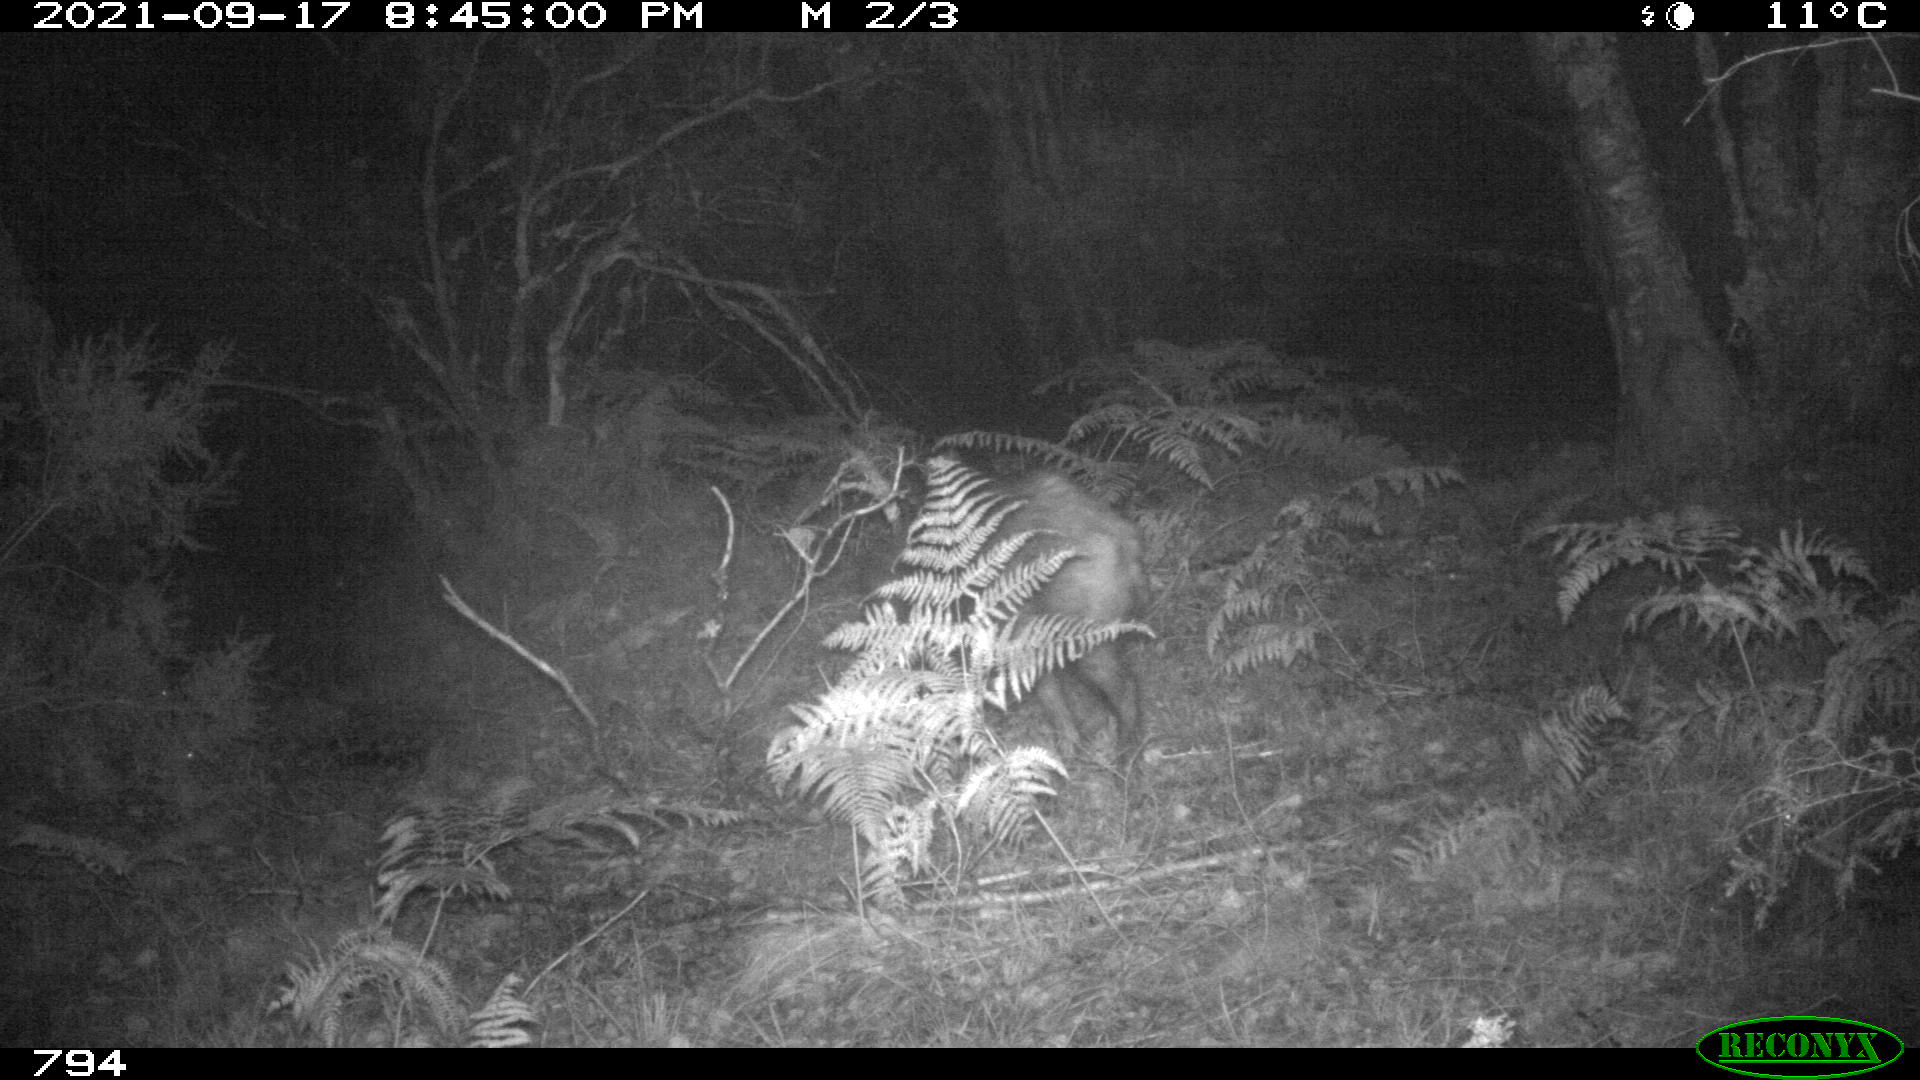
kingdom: Animalia
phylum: Chordata
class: Mammalia
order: Artiodactyla
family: Suidae
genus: Sus
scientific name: Sus scrofa
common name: Wild boar
